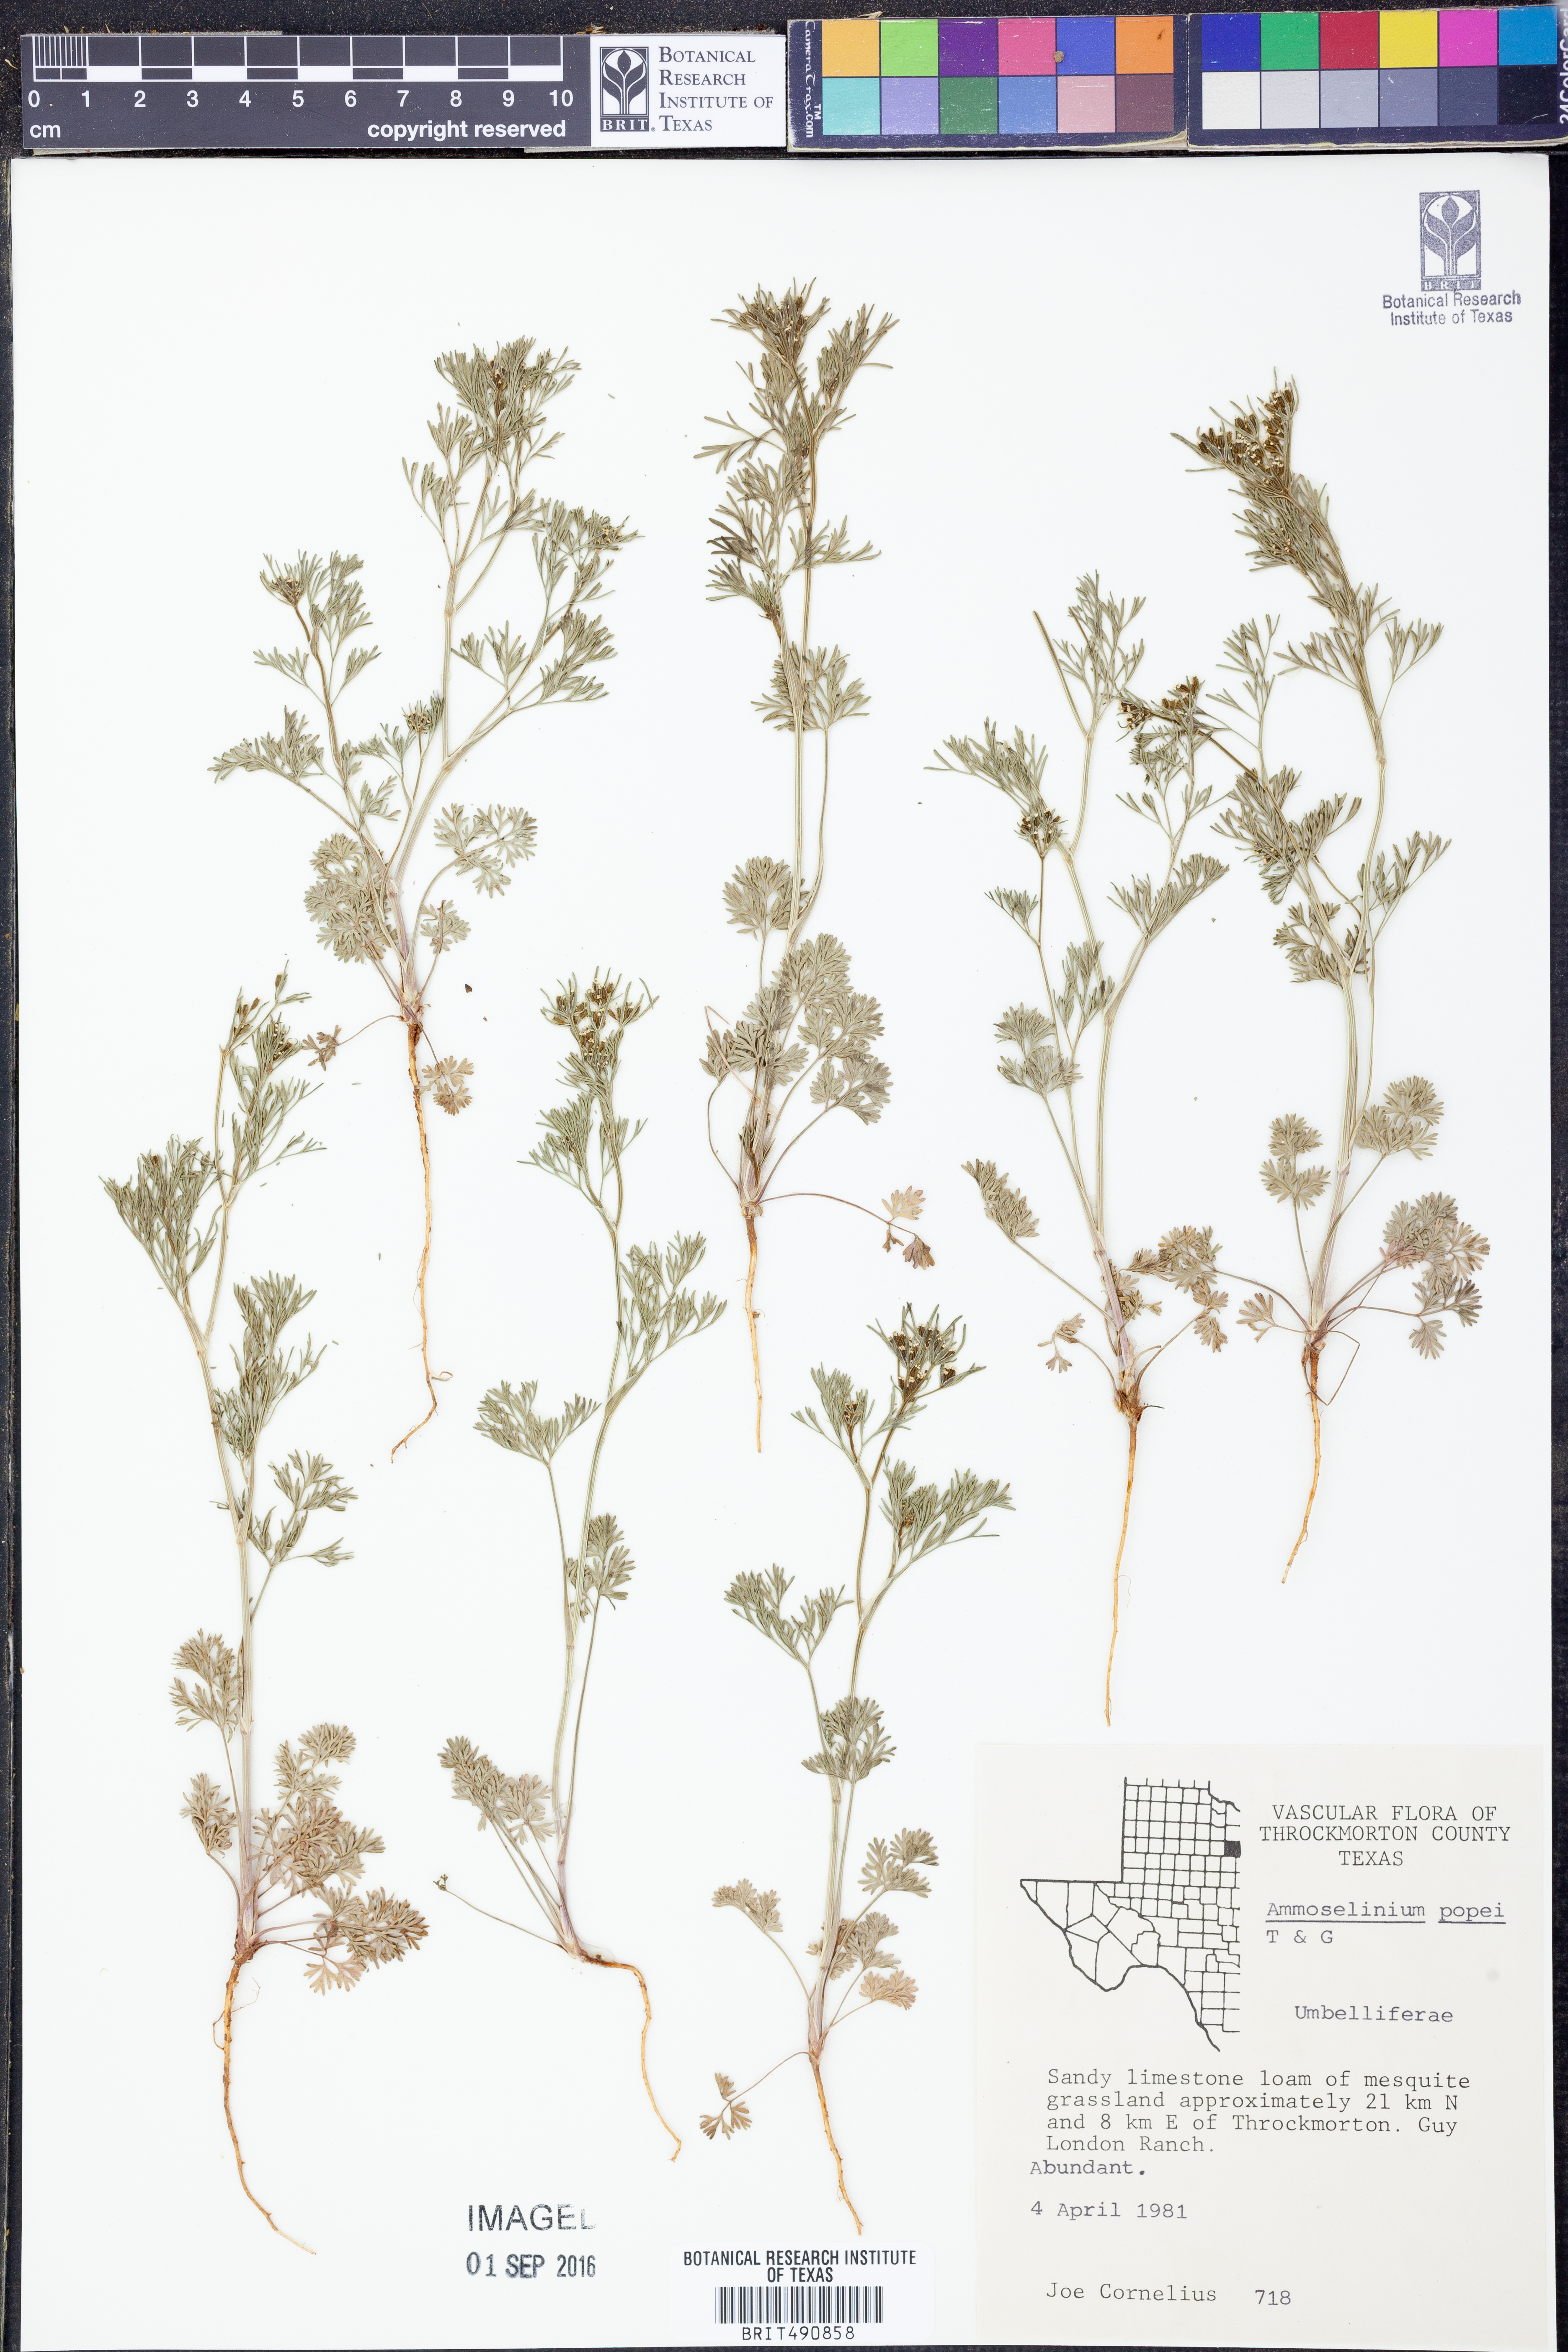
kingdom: Plantae
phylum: Tracheophyta
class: Magnoliopsida
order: Apiales
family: Apiaceae
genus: Ammoselinum
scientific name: Ammoselinum popei
